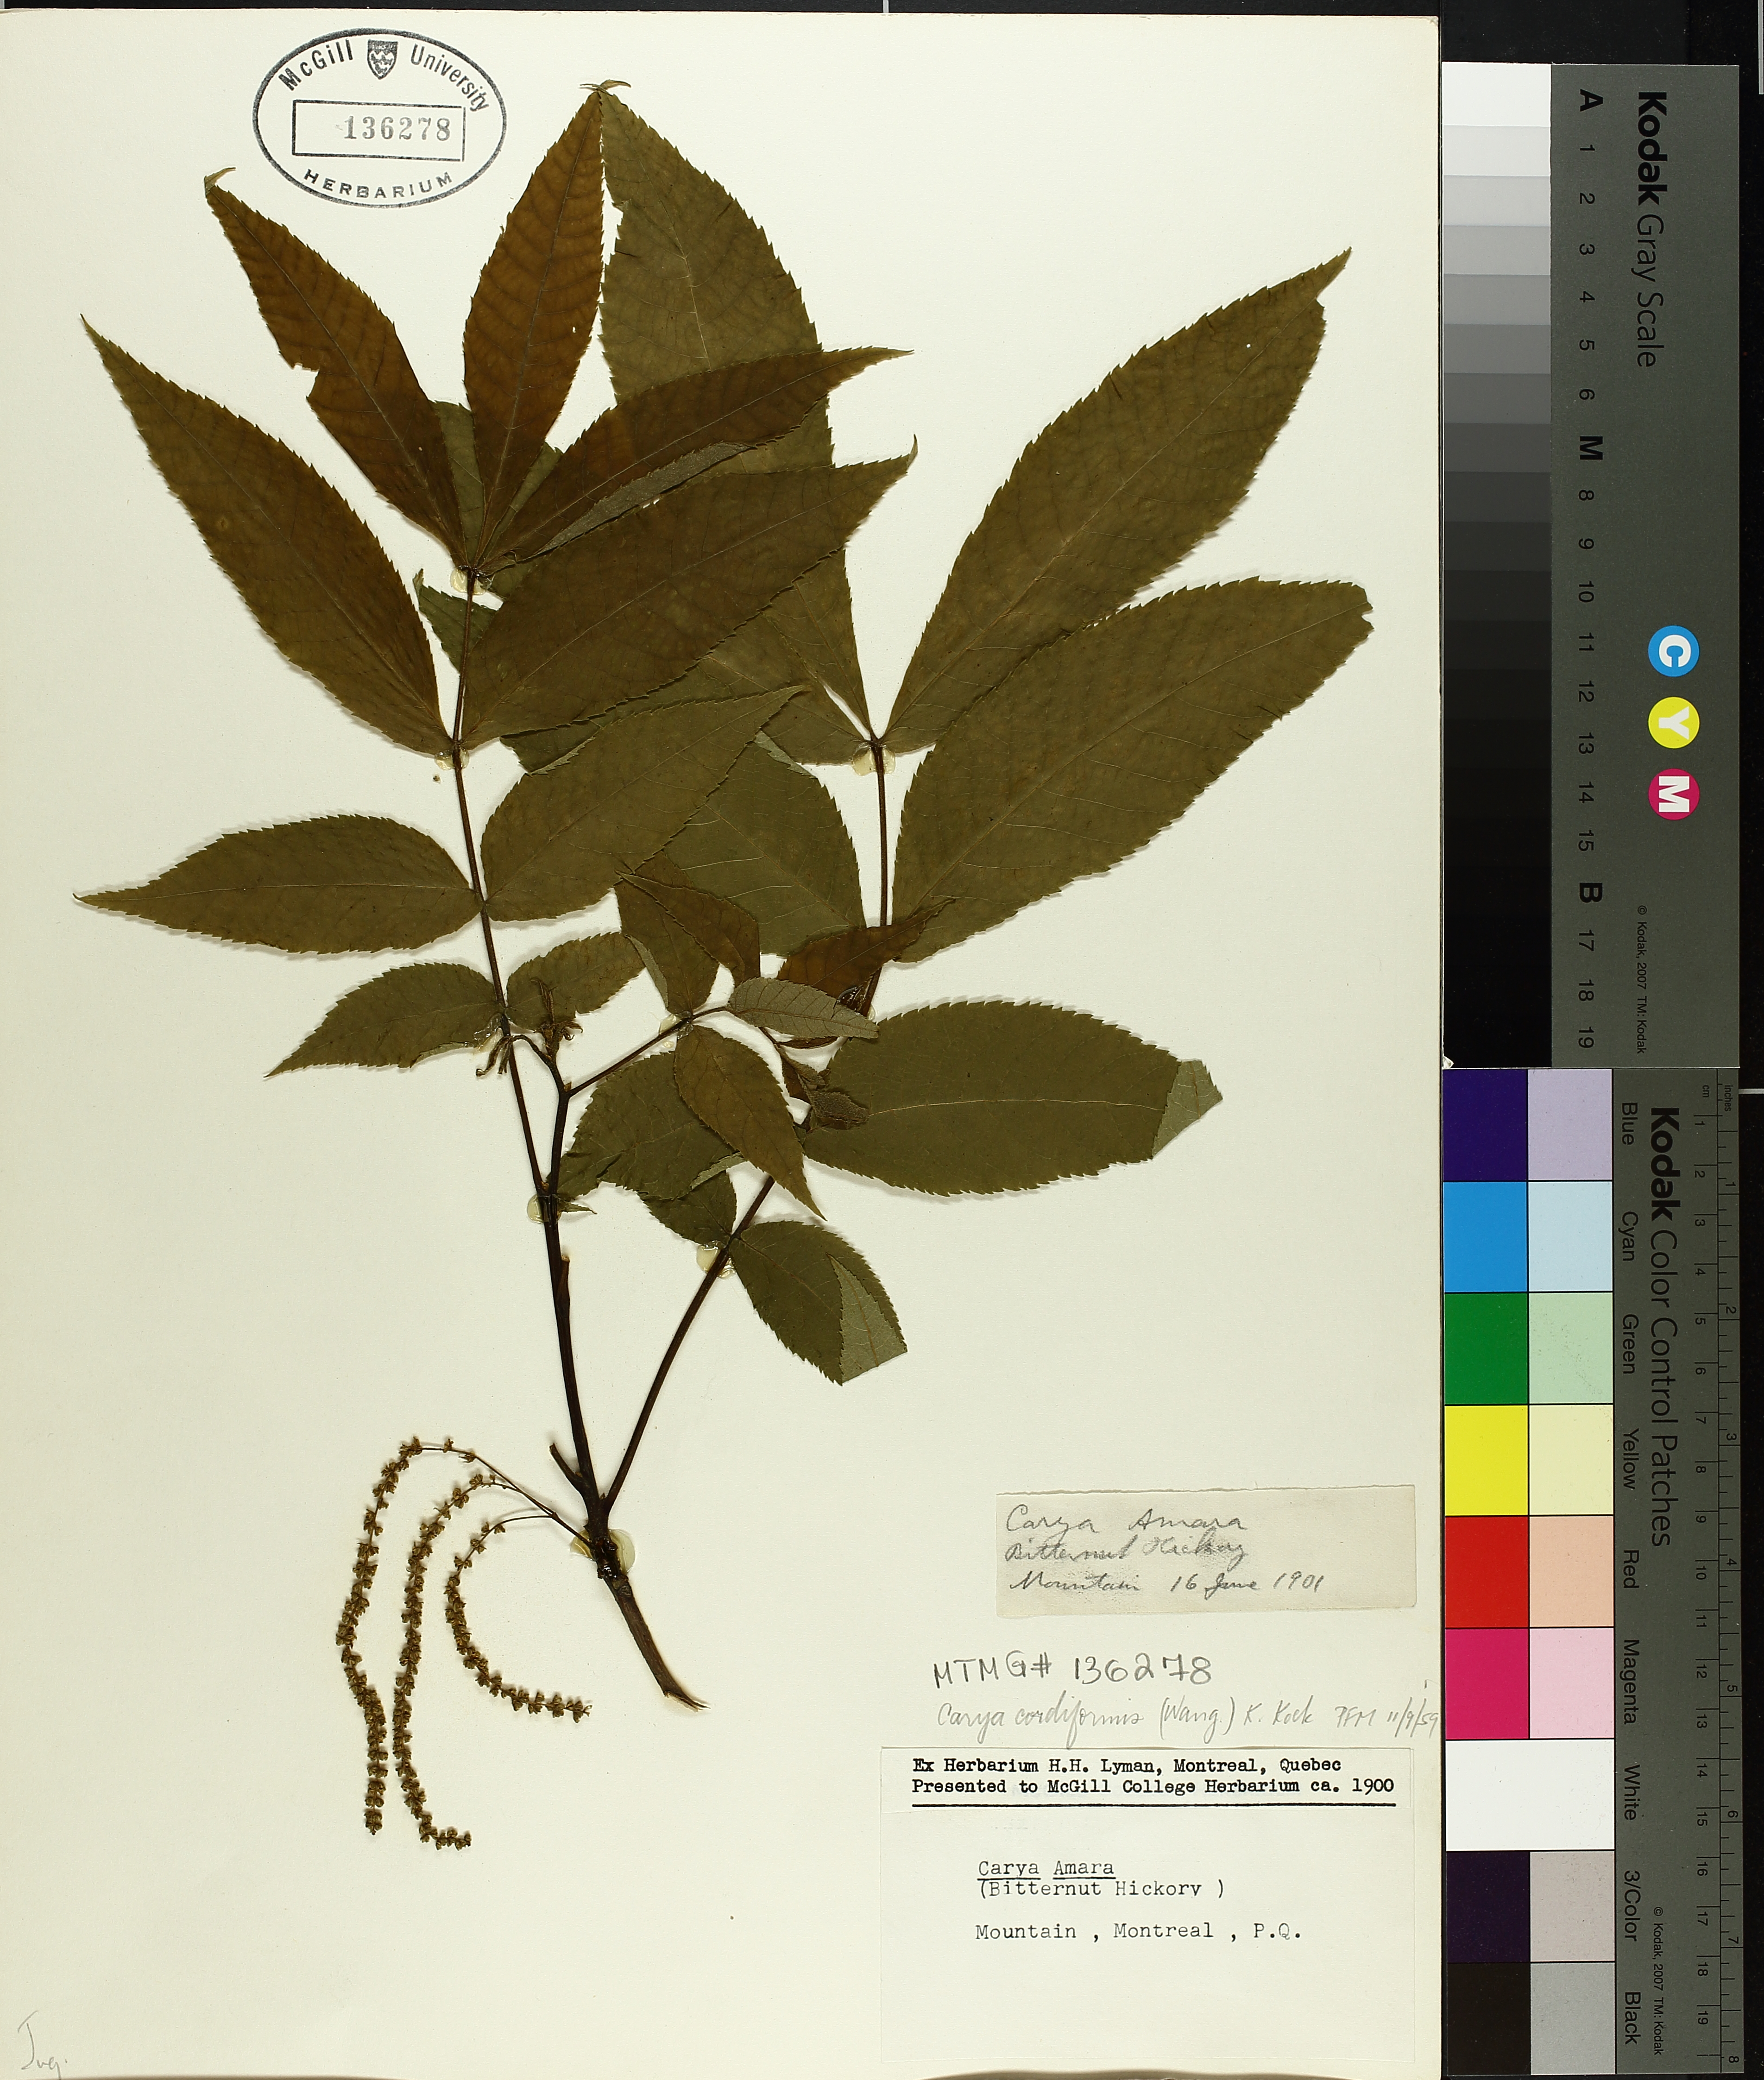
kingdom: Plantae
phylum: Tracheophyta
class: Magnoliopsida
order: Fagales
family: Juglandaceae
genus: Carya
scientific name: Carya cordiformis
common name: Bitternut hickory
